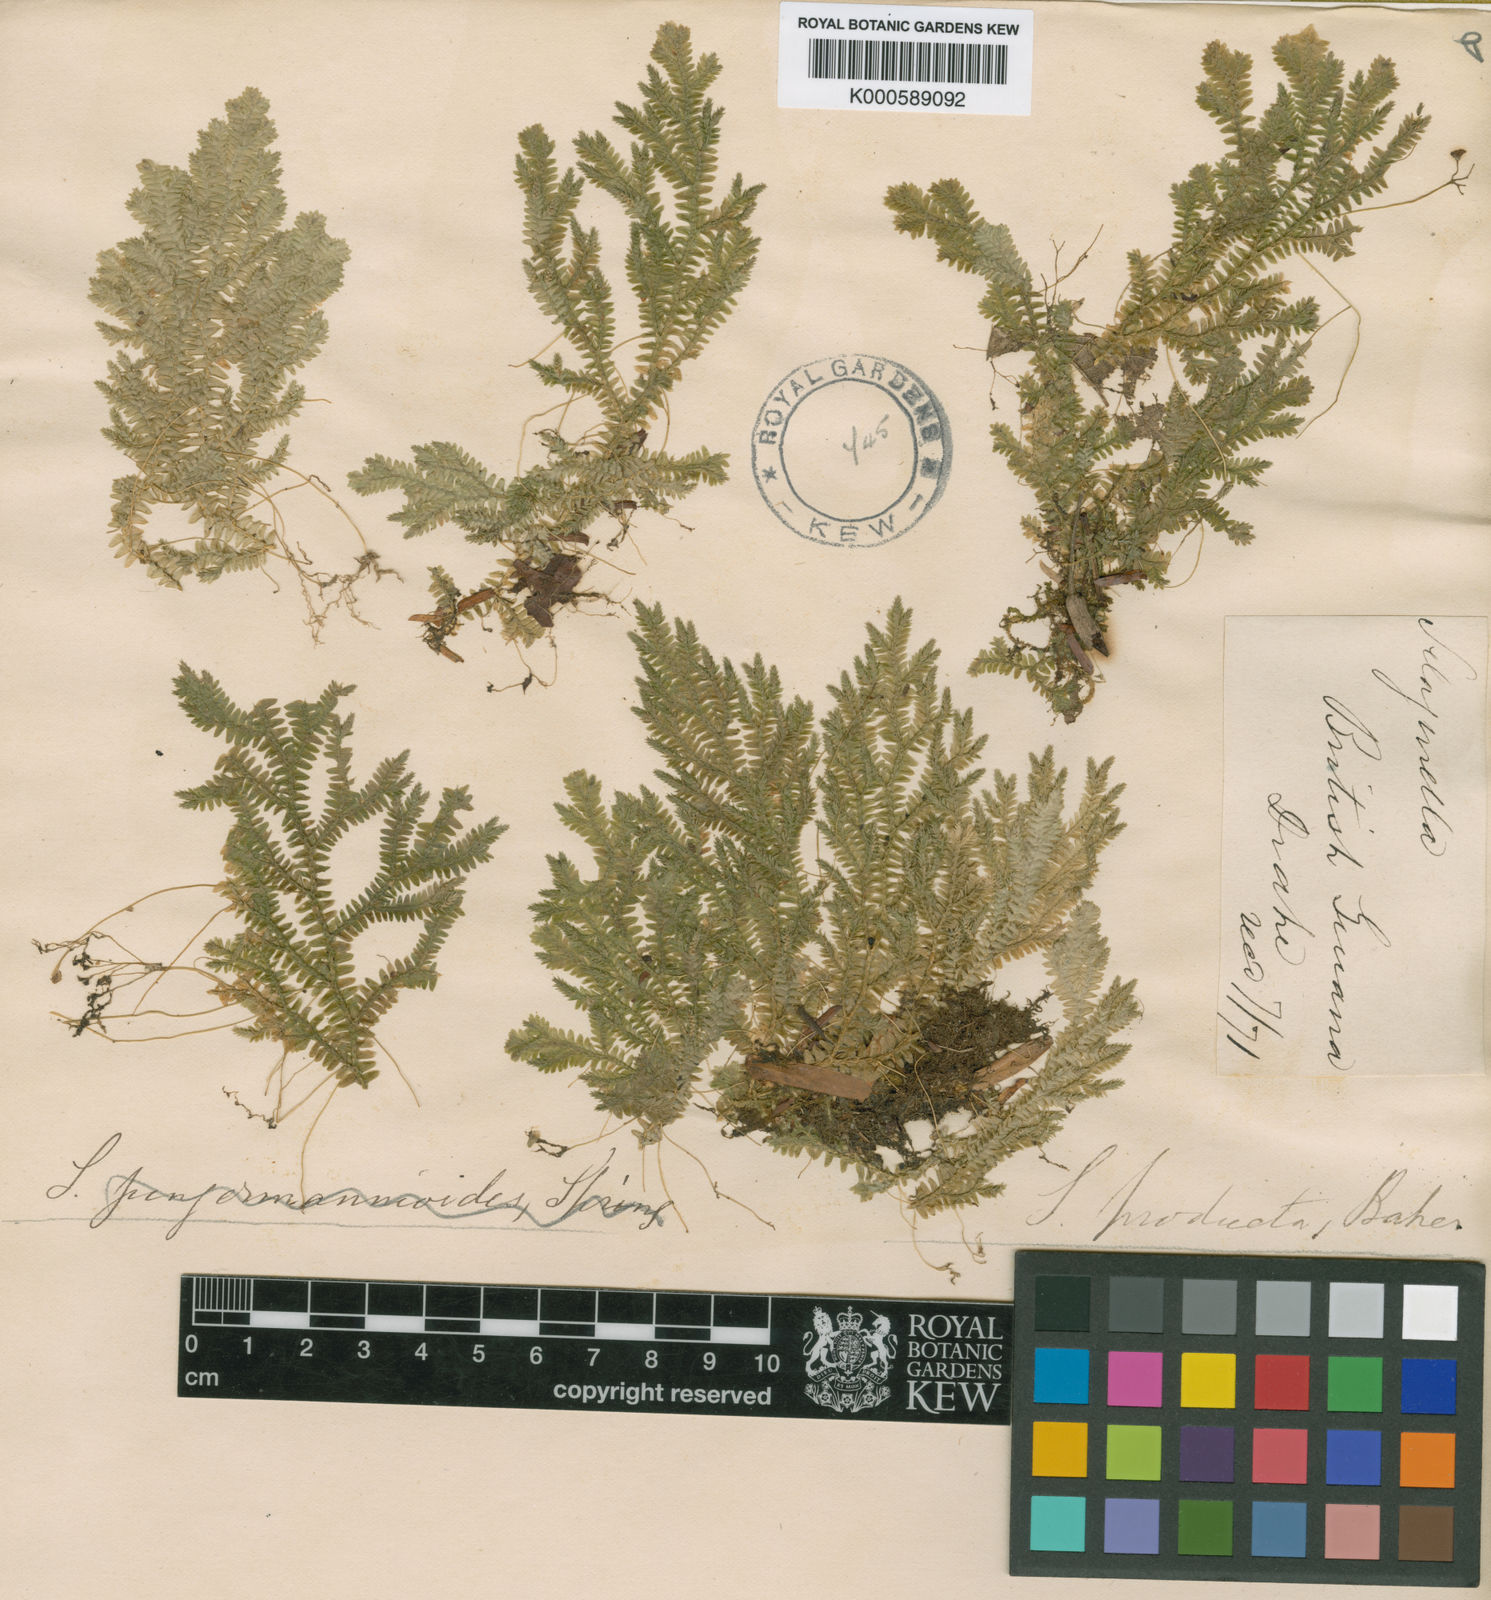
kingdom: Plantae
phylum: Tracheophyta
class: Lycopodiopsida
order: Selaginellales
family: Selaginellaceae
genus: Selaginella
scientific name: Selaginella revoluta
